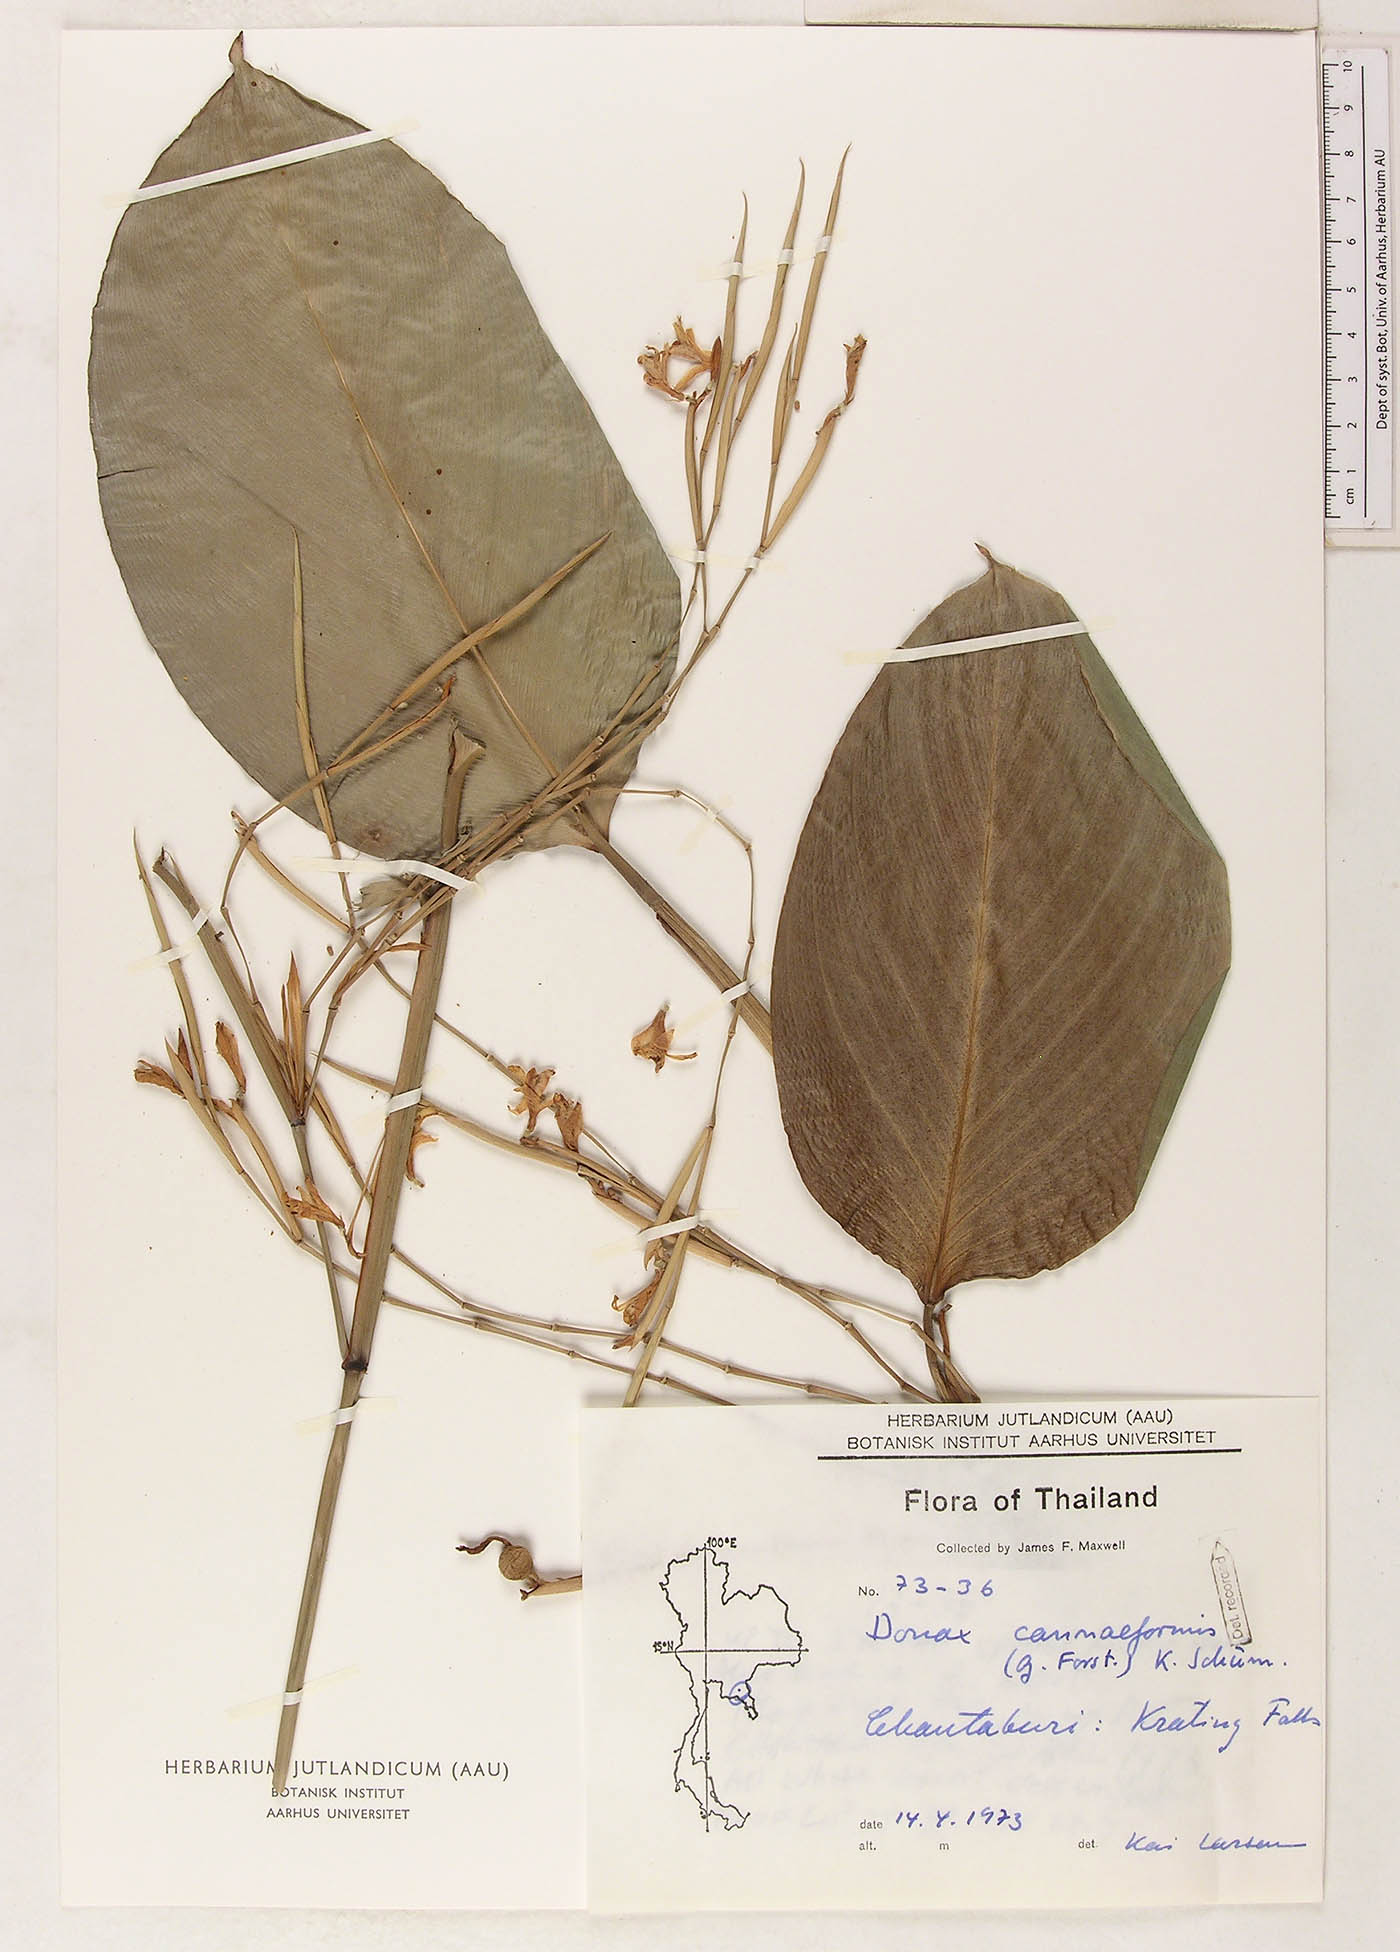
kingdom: Plantae
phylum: Tracheophyta
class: Liliopsida
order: Zingiberales
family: Marantaceae
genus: Donax
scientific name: Donax canniformis
